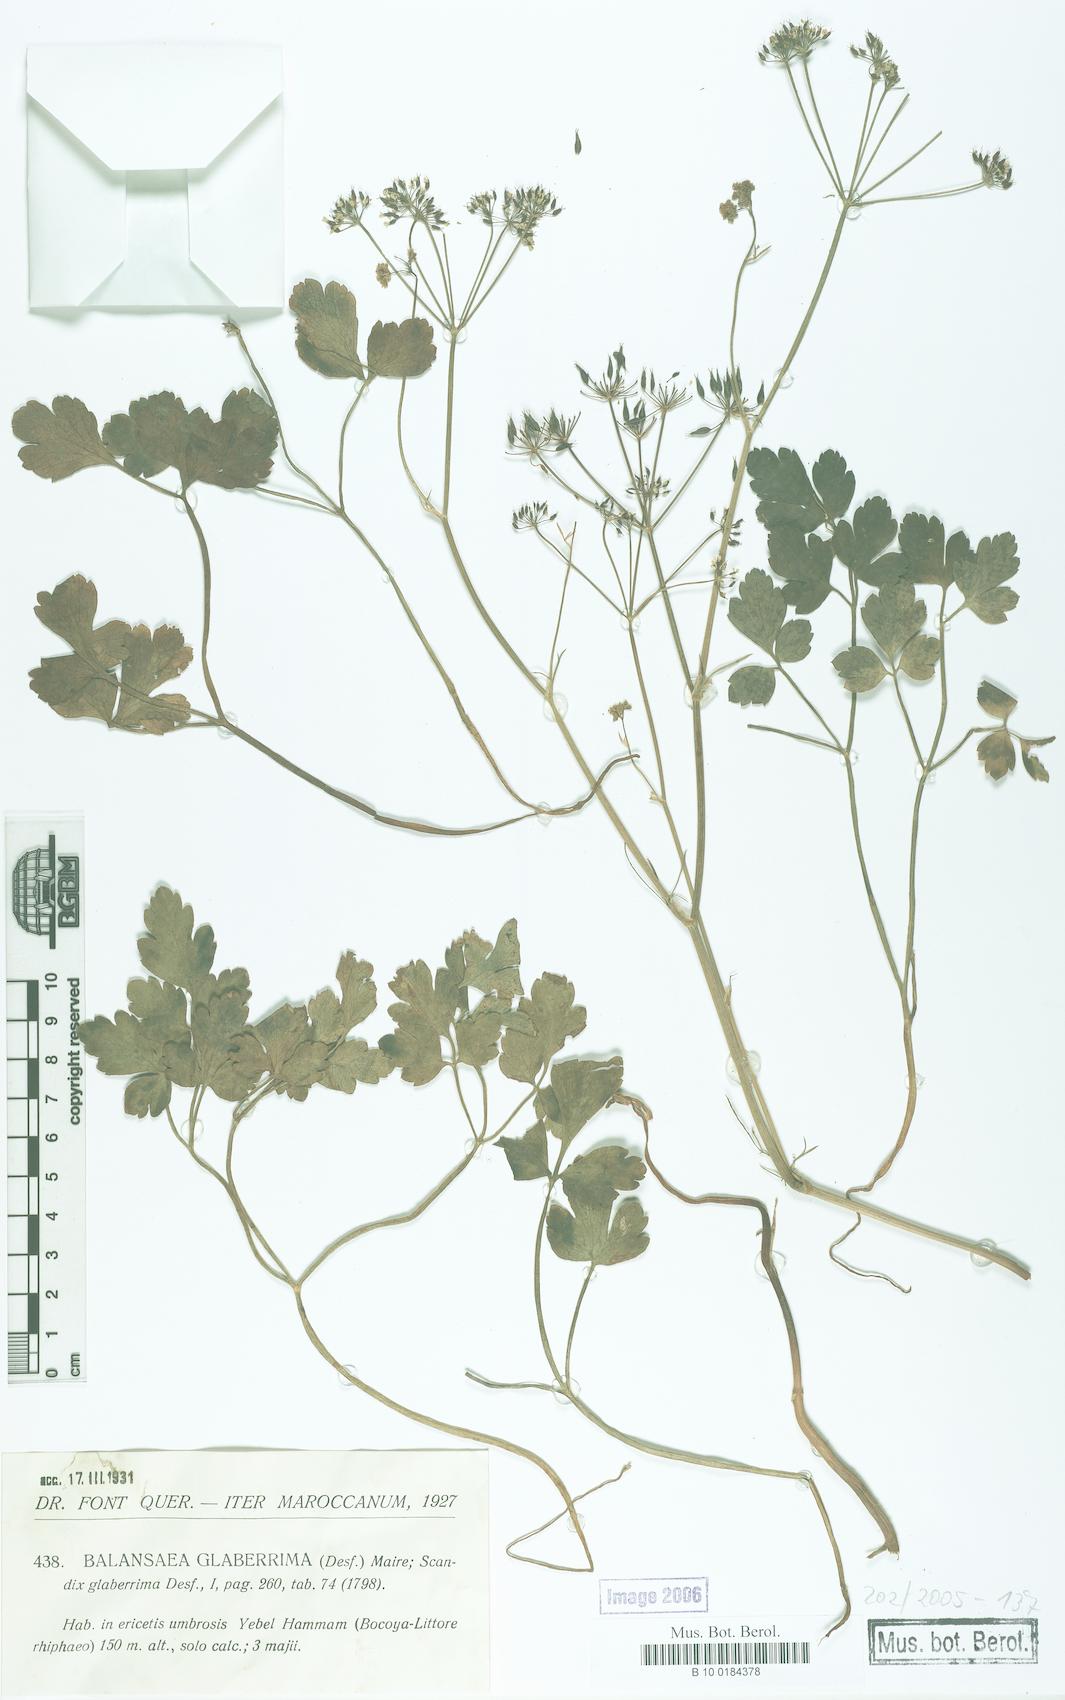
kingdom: Plantae
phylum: Tracheophyta
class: Magnoliopsida
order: Apiales
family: Apiaceae
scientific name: Apiaceae
